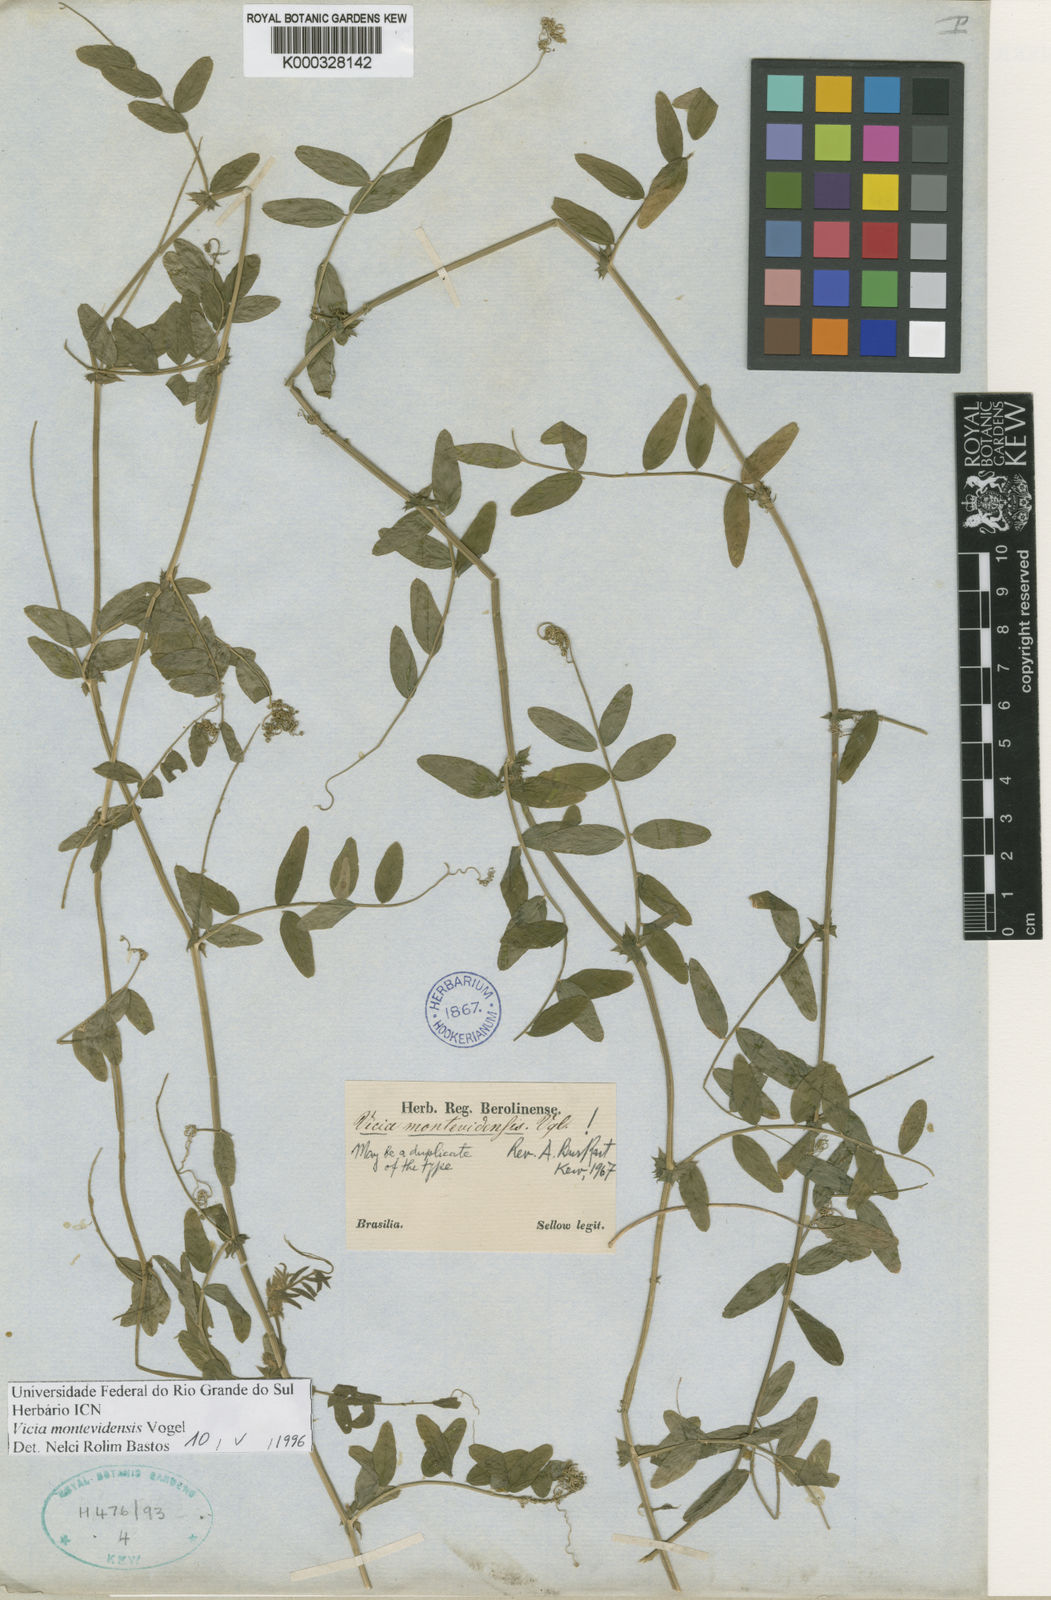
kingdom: Plantae
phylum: Tracheophyta
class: Magnoliopsida
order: Fabales
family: Fabaceae
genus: Vicia
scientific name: Vicia montevidensis
